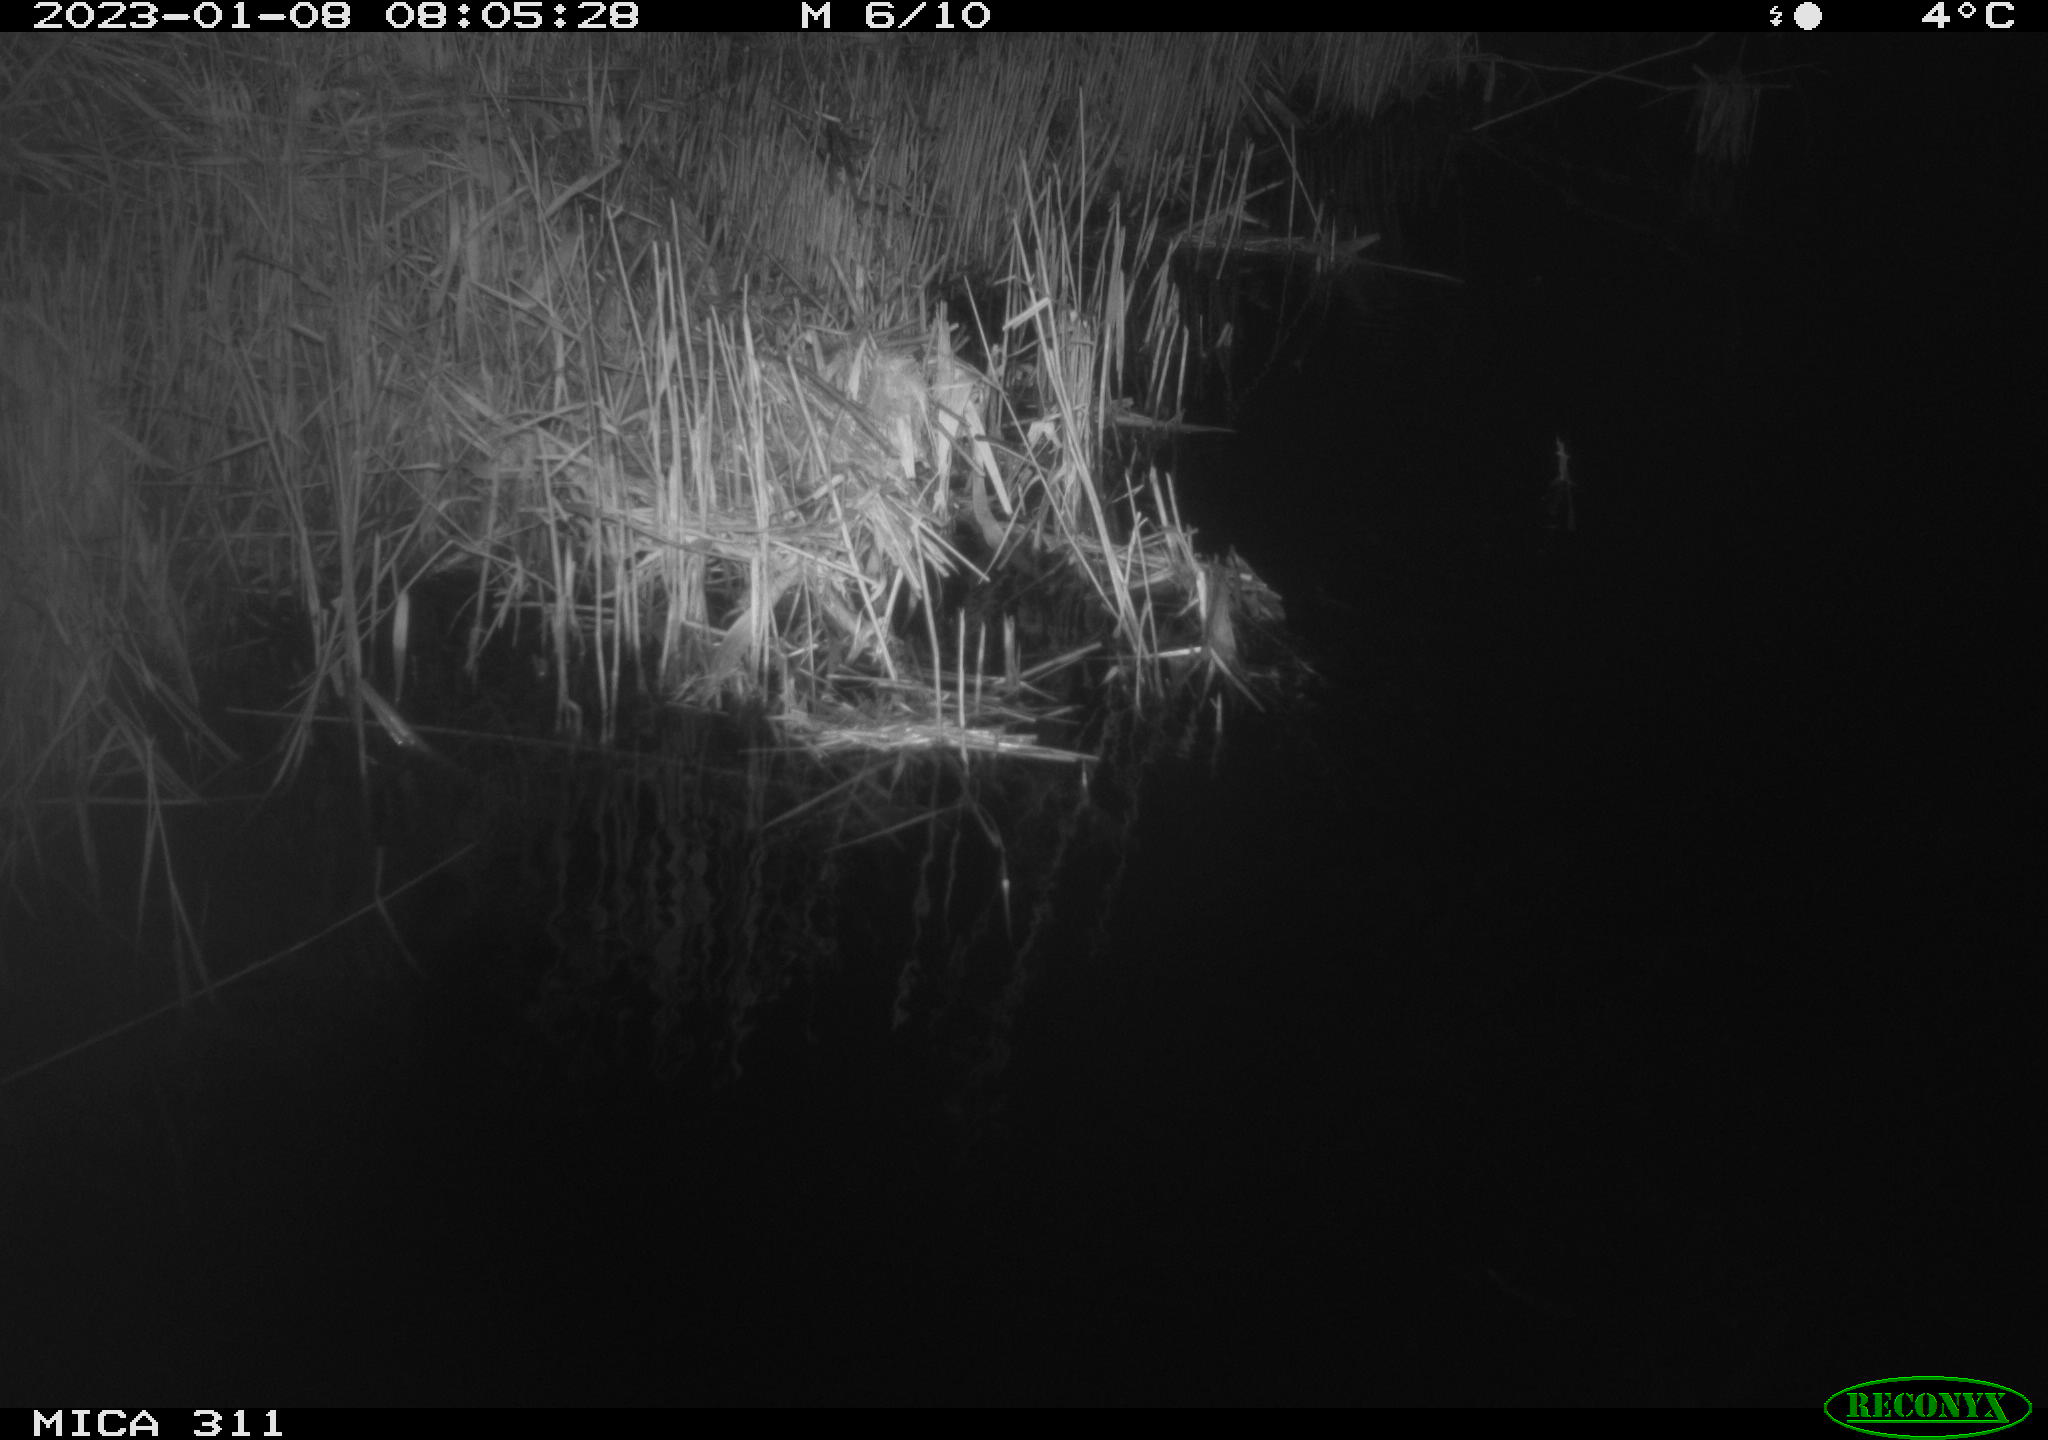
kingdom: Animalia
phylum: Chordata
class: Aves
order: Gruiformes
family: Rallidae
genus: Gallinula
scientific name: Gallinula chloropus
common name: Common moorhen
